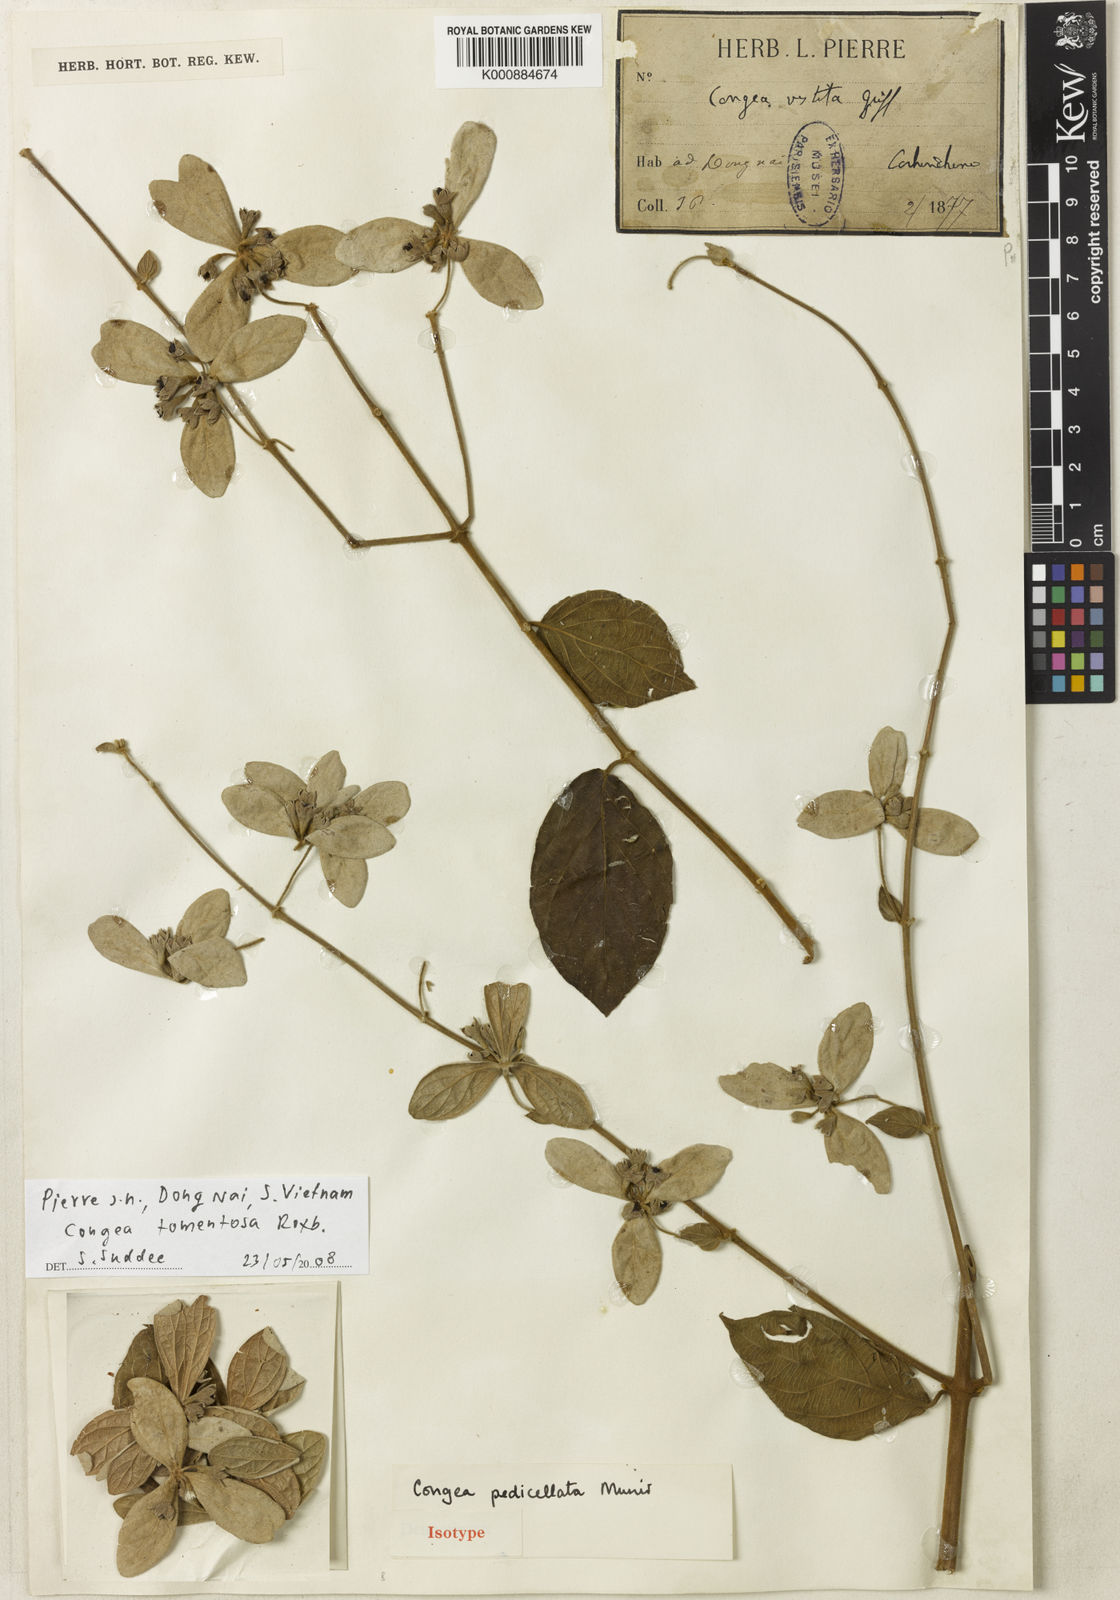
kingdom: Plantae
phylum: Tracheophyta
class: Magnoliopsida
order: Lamiales
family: Lamiaceae
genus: Congea
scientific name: Congea pedicellata
